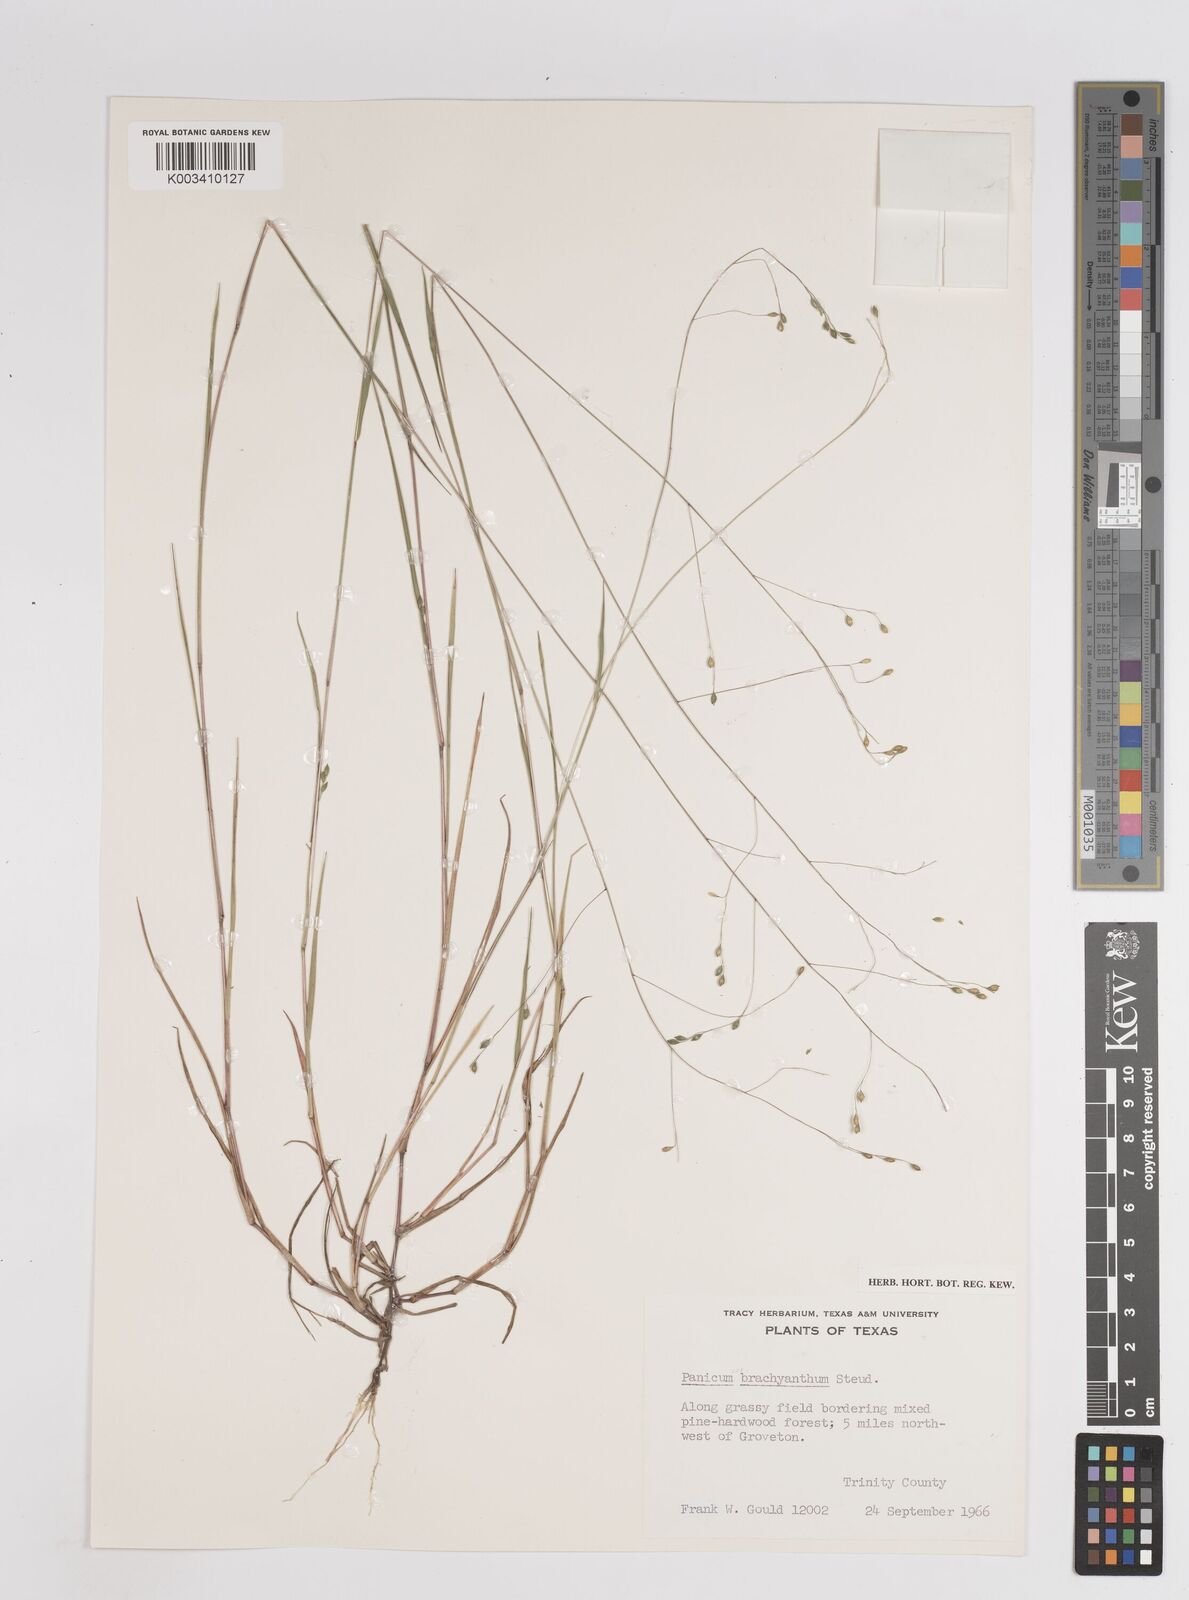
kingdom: Plantae
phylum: Tracheophyta
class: Liliopsida
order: Poales
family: Poaceae
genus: Kellochloa
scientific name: Kellochloa brachyantha
